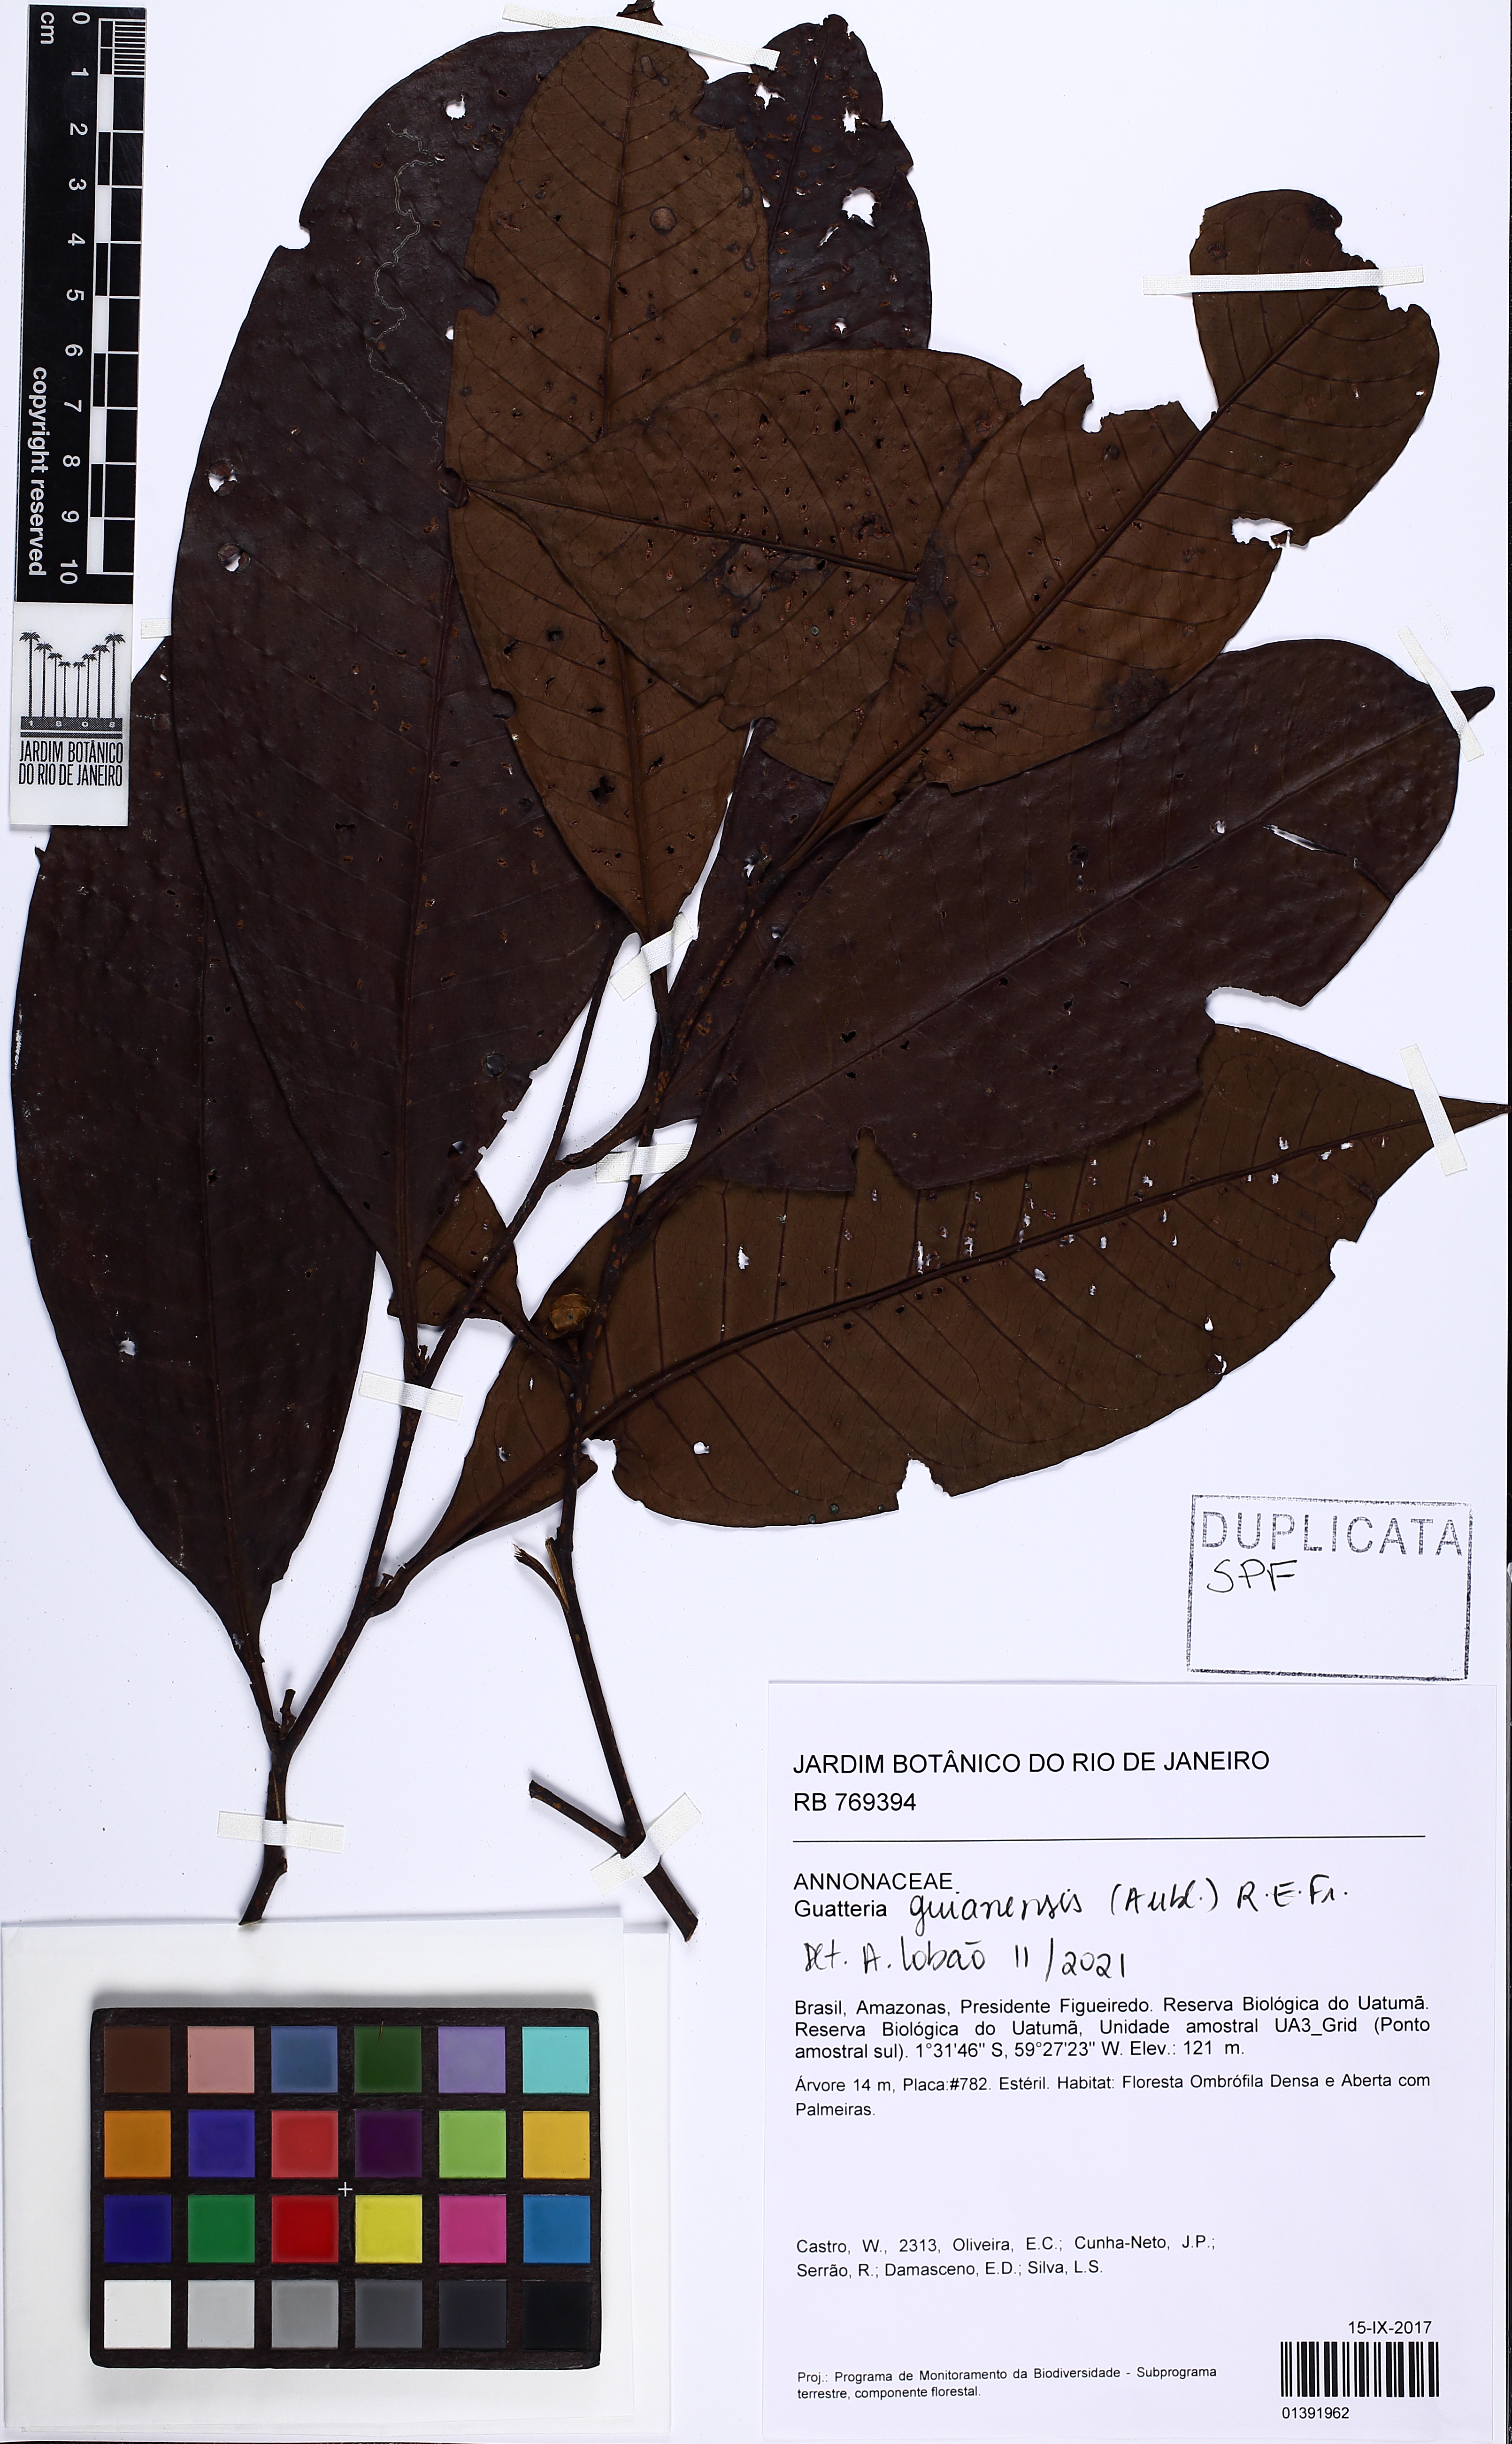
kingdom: Plantae
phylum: Tracheophyta
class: Magnoliopsida
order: Magnoliales
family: Annonaceae
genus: Guatteria
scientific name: Guatteria guianensis
